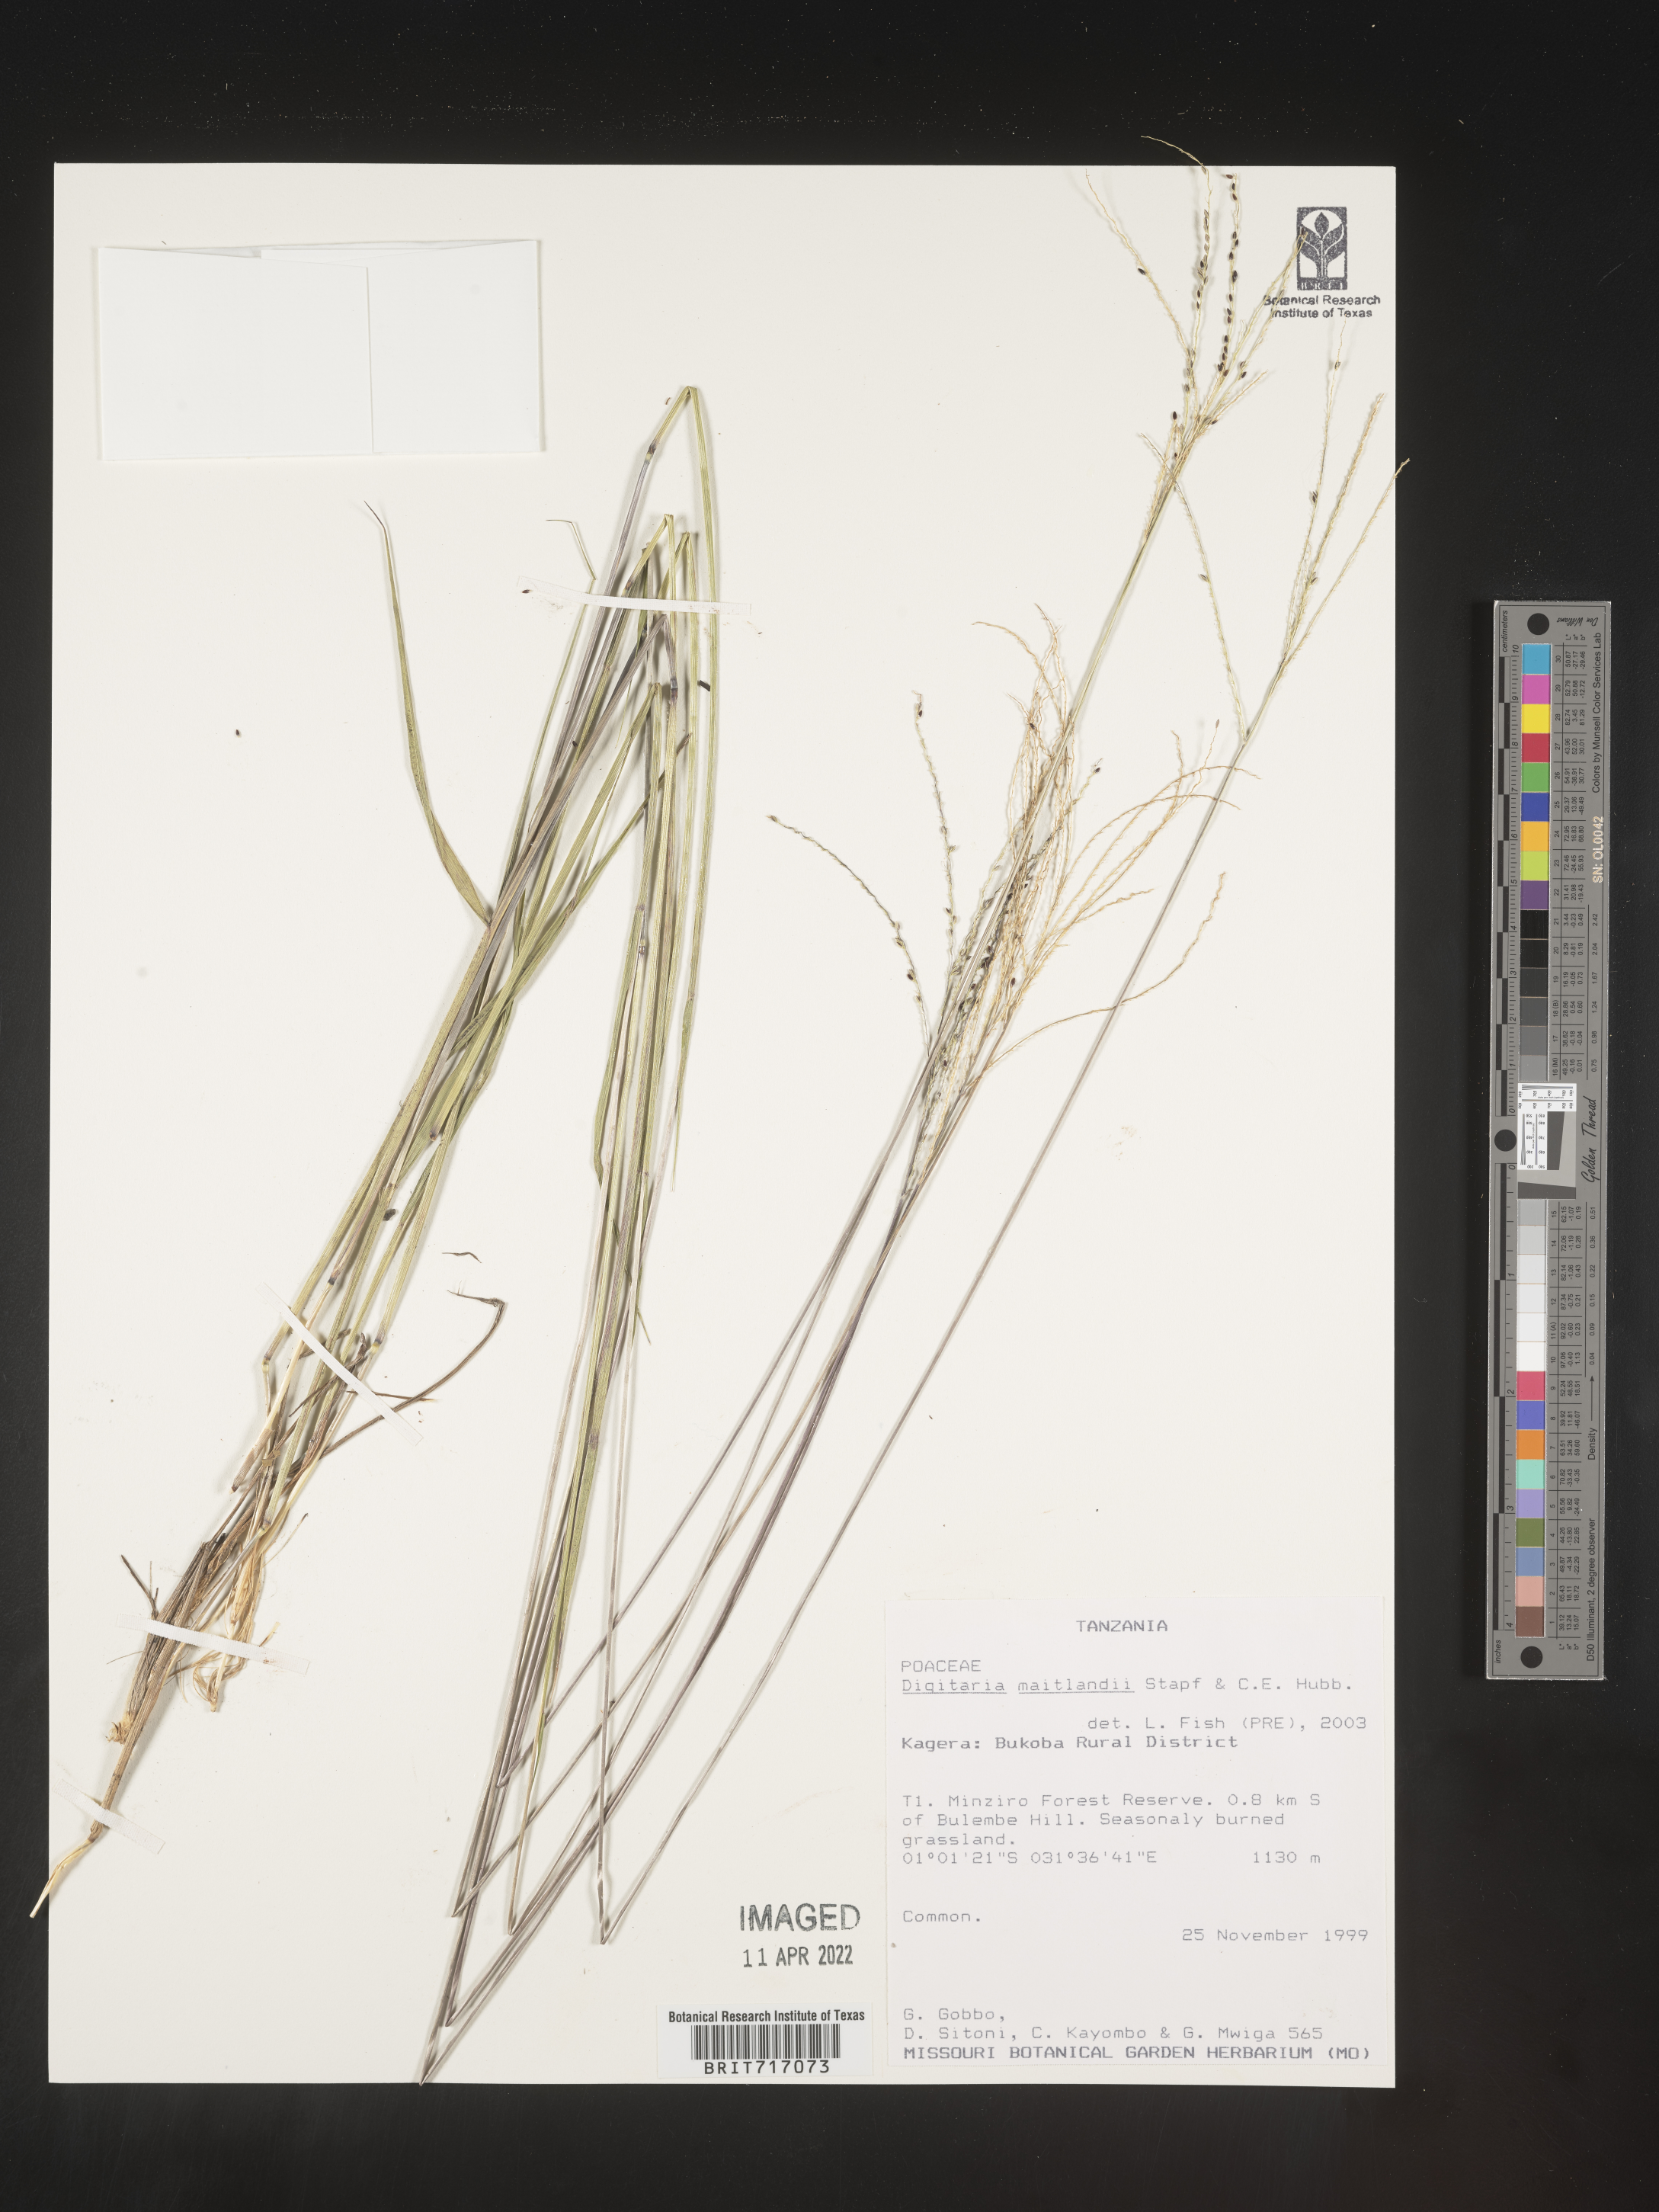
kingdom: Plantae
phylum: Tracheophyta
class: Liliopsida
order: Poales
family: Poaceae
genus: Digitaria
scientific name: Digitaria
